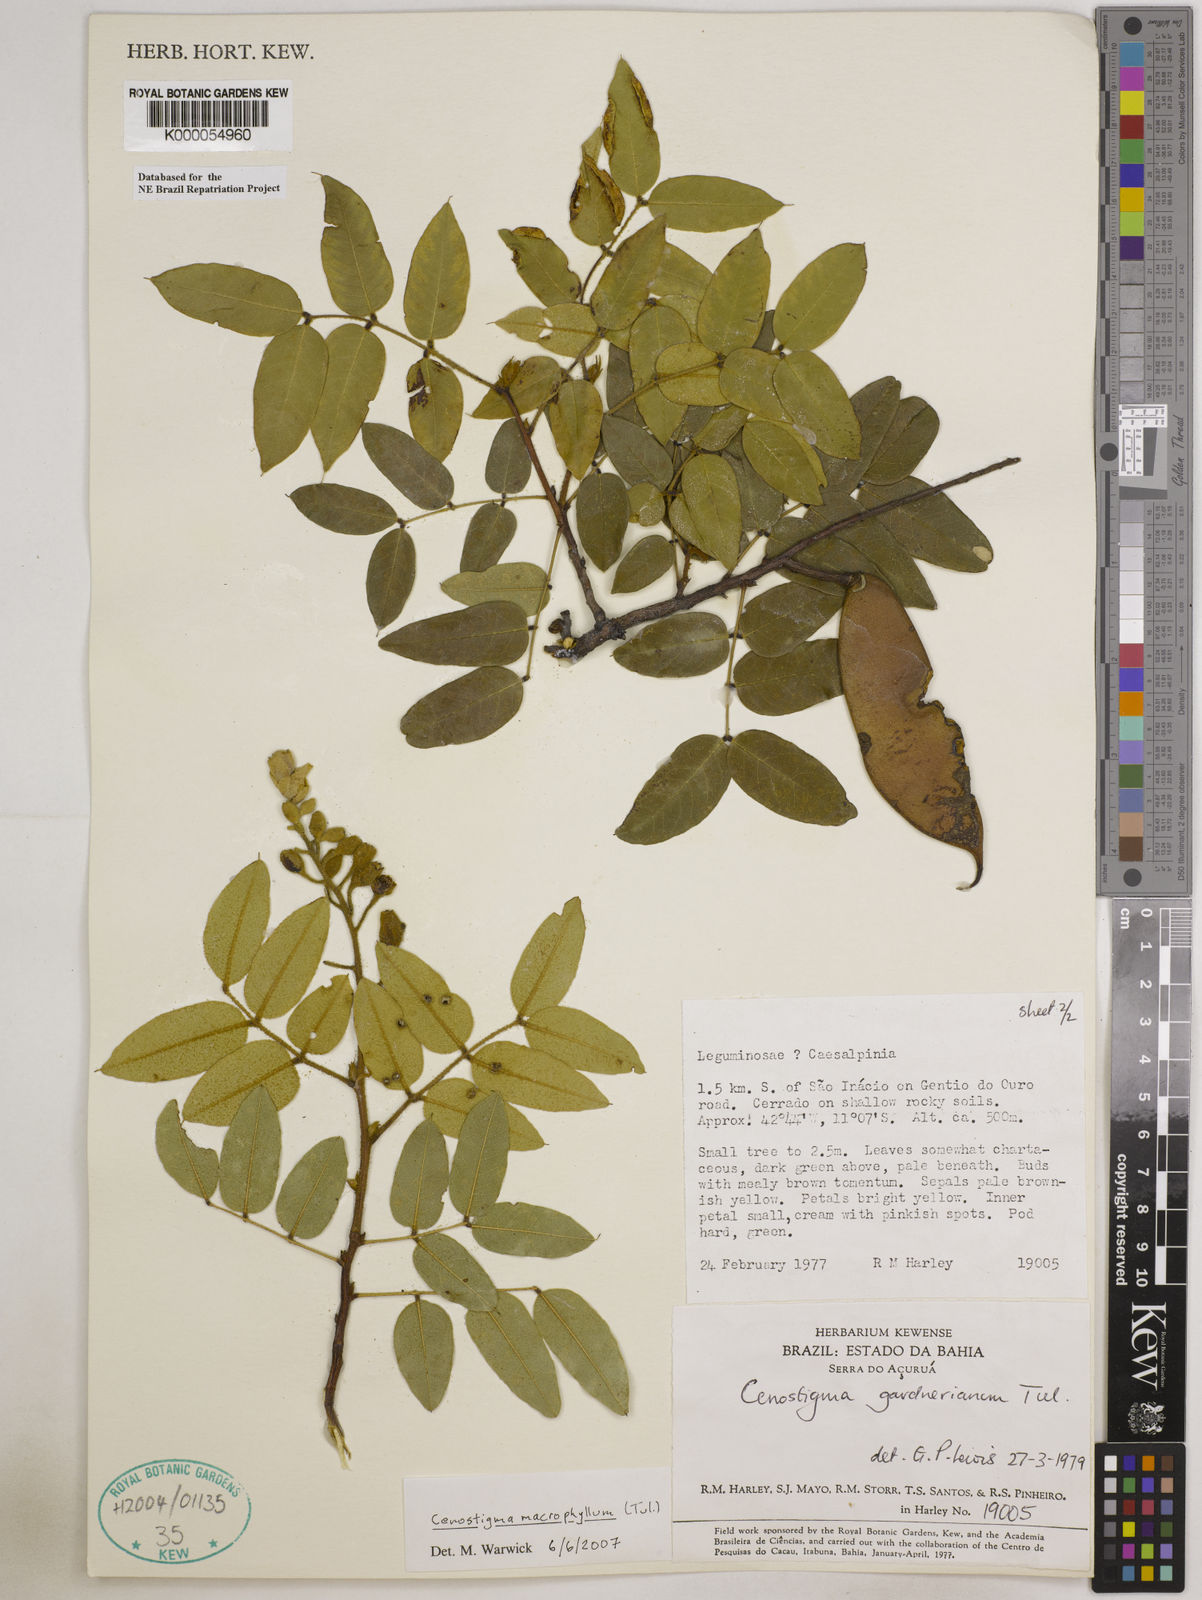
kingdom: Plantae
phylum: Tracheophyta
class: Magnoliopsida
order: Fabales
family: Fabaceae
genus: Cenostigma
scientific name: Cenostigma macrophyllum
